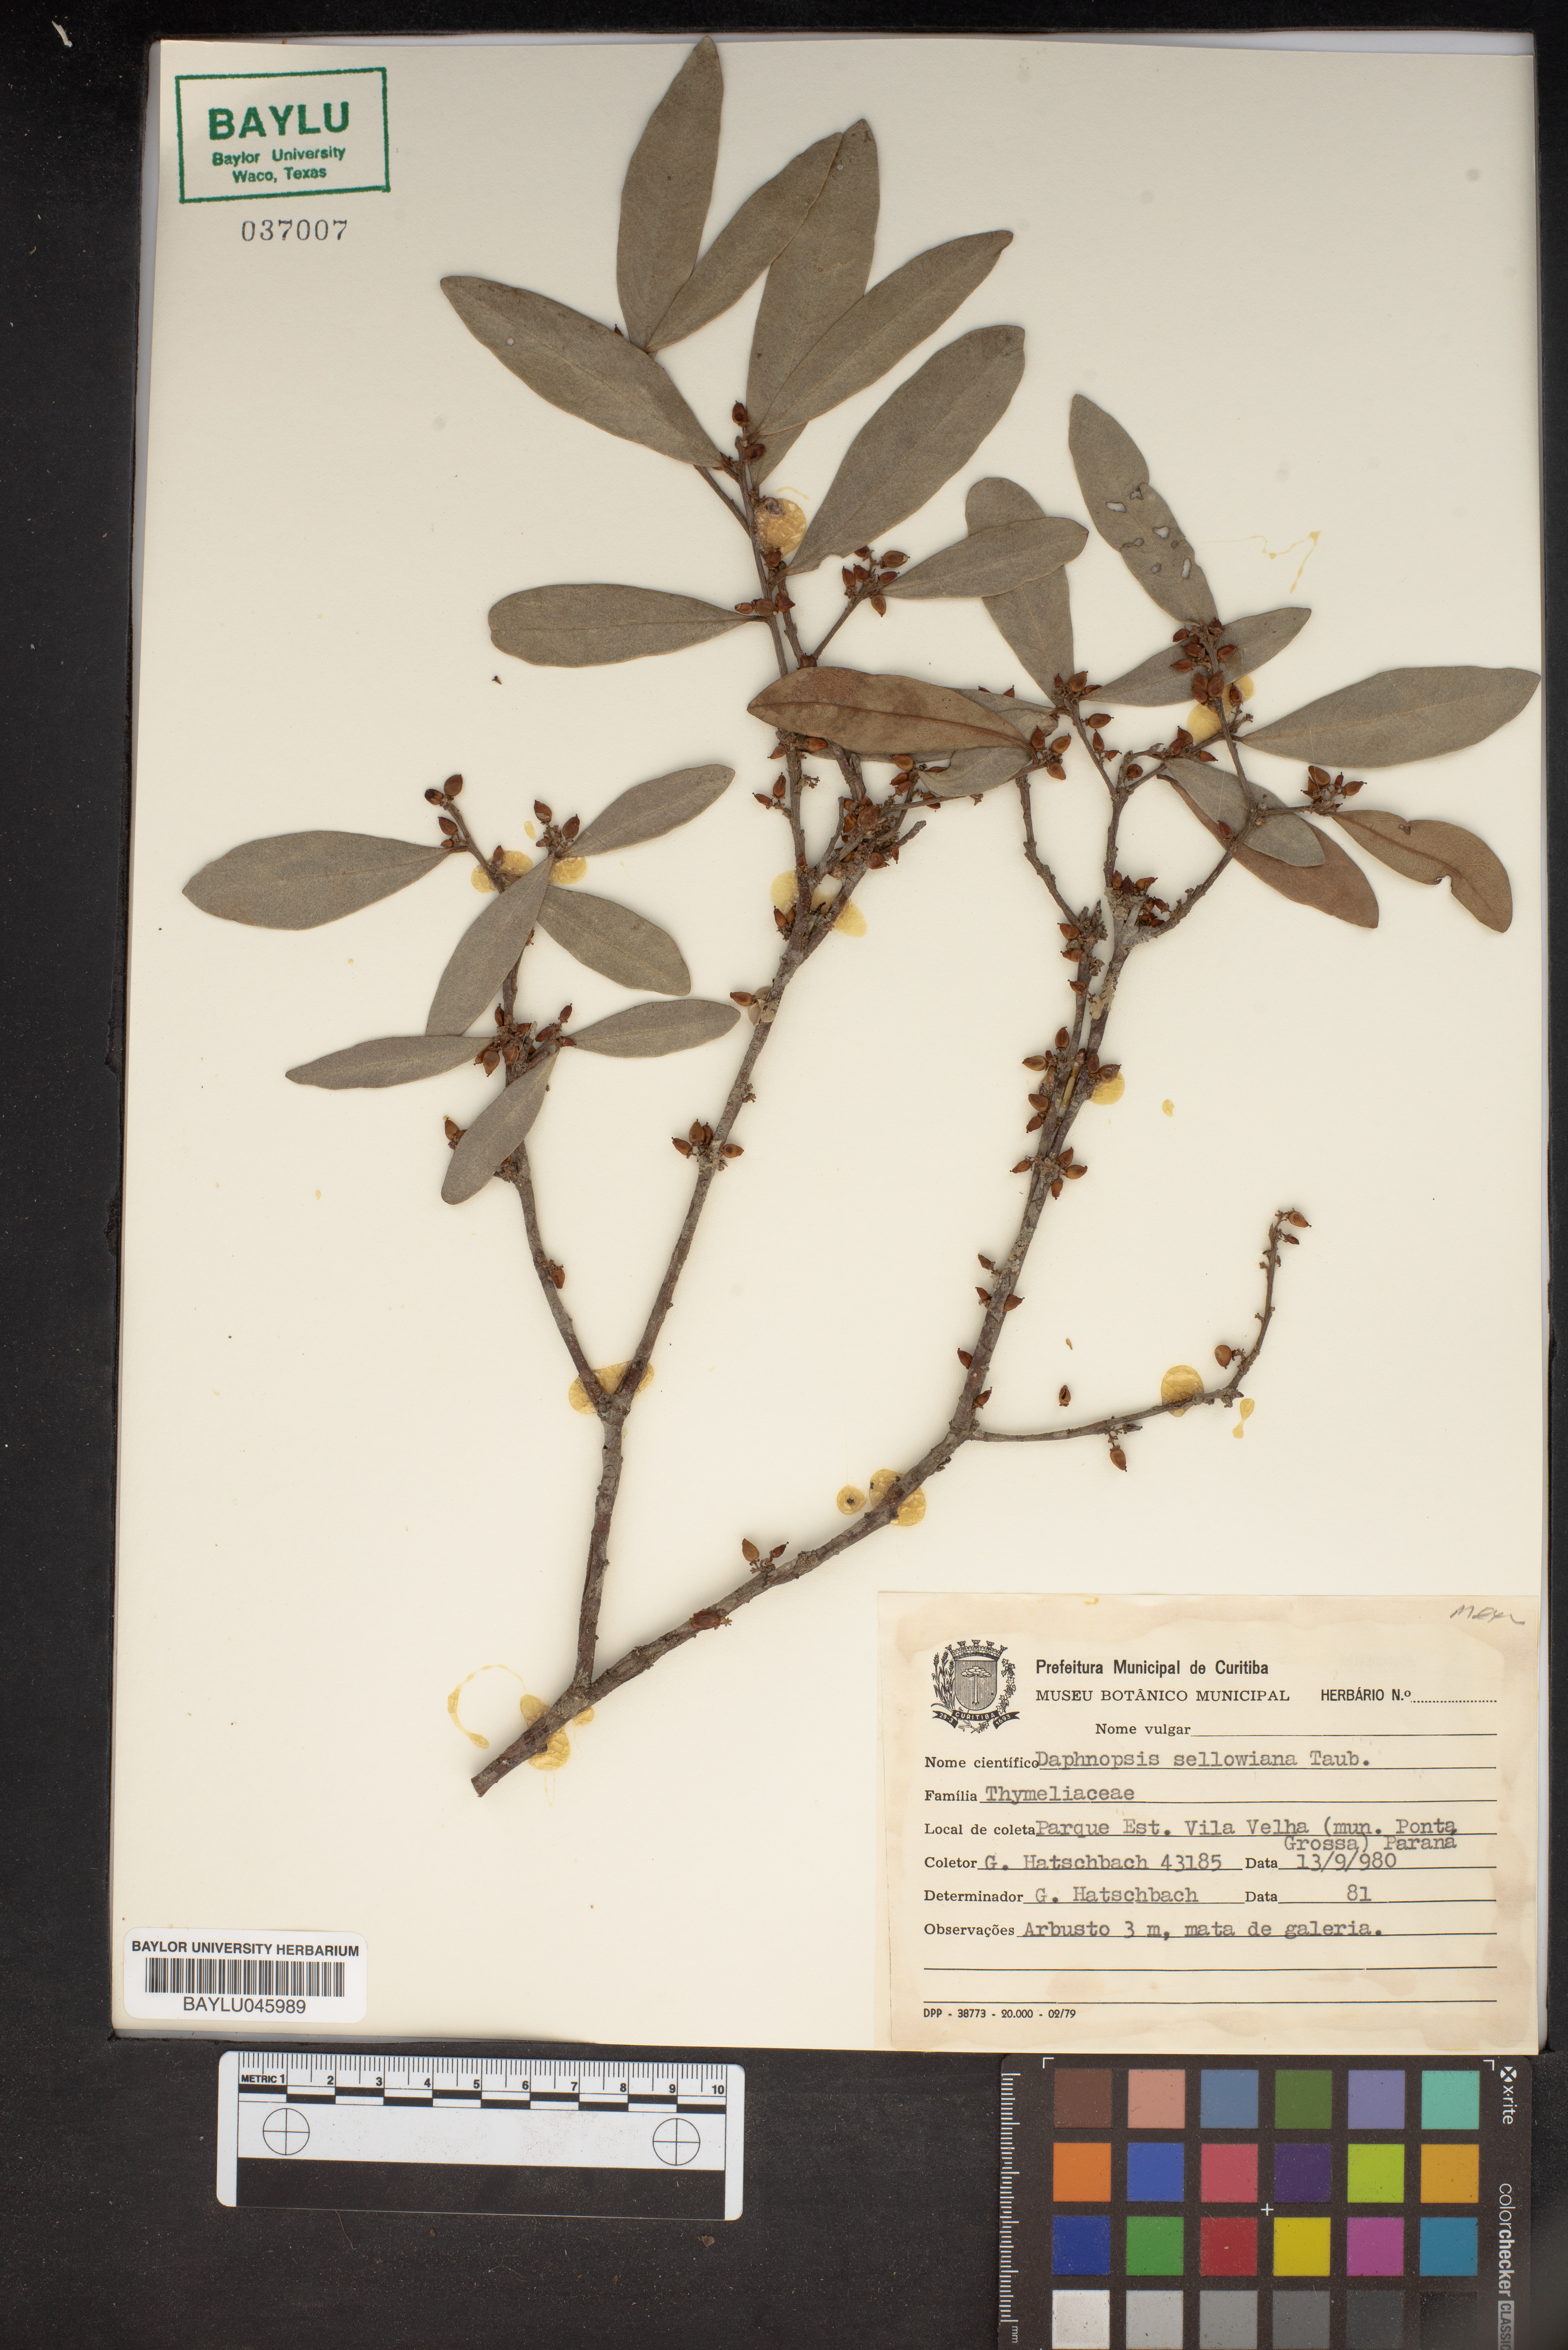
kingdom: Plantae
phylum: Tracheophyta
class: Magnoliopsida
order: Malvales
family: Thymelaeaceae
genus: Daphnopsis
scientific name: Daphnopsis sellowiana
